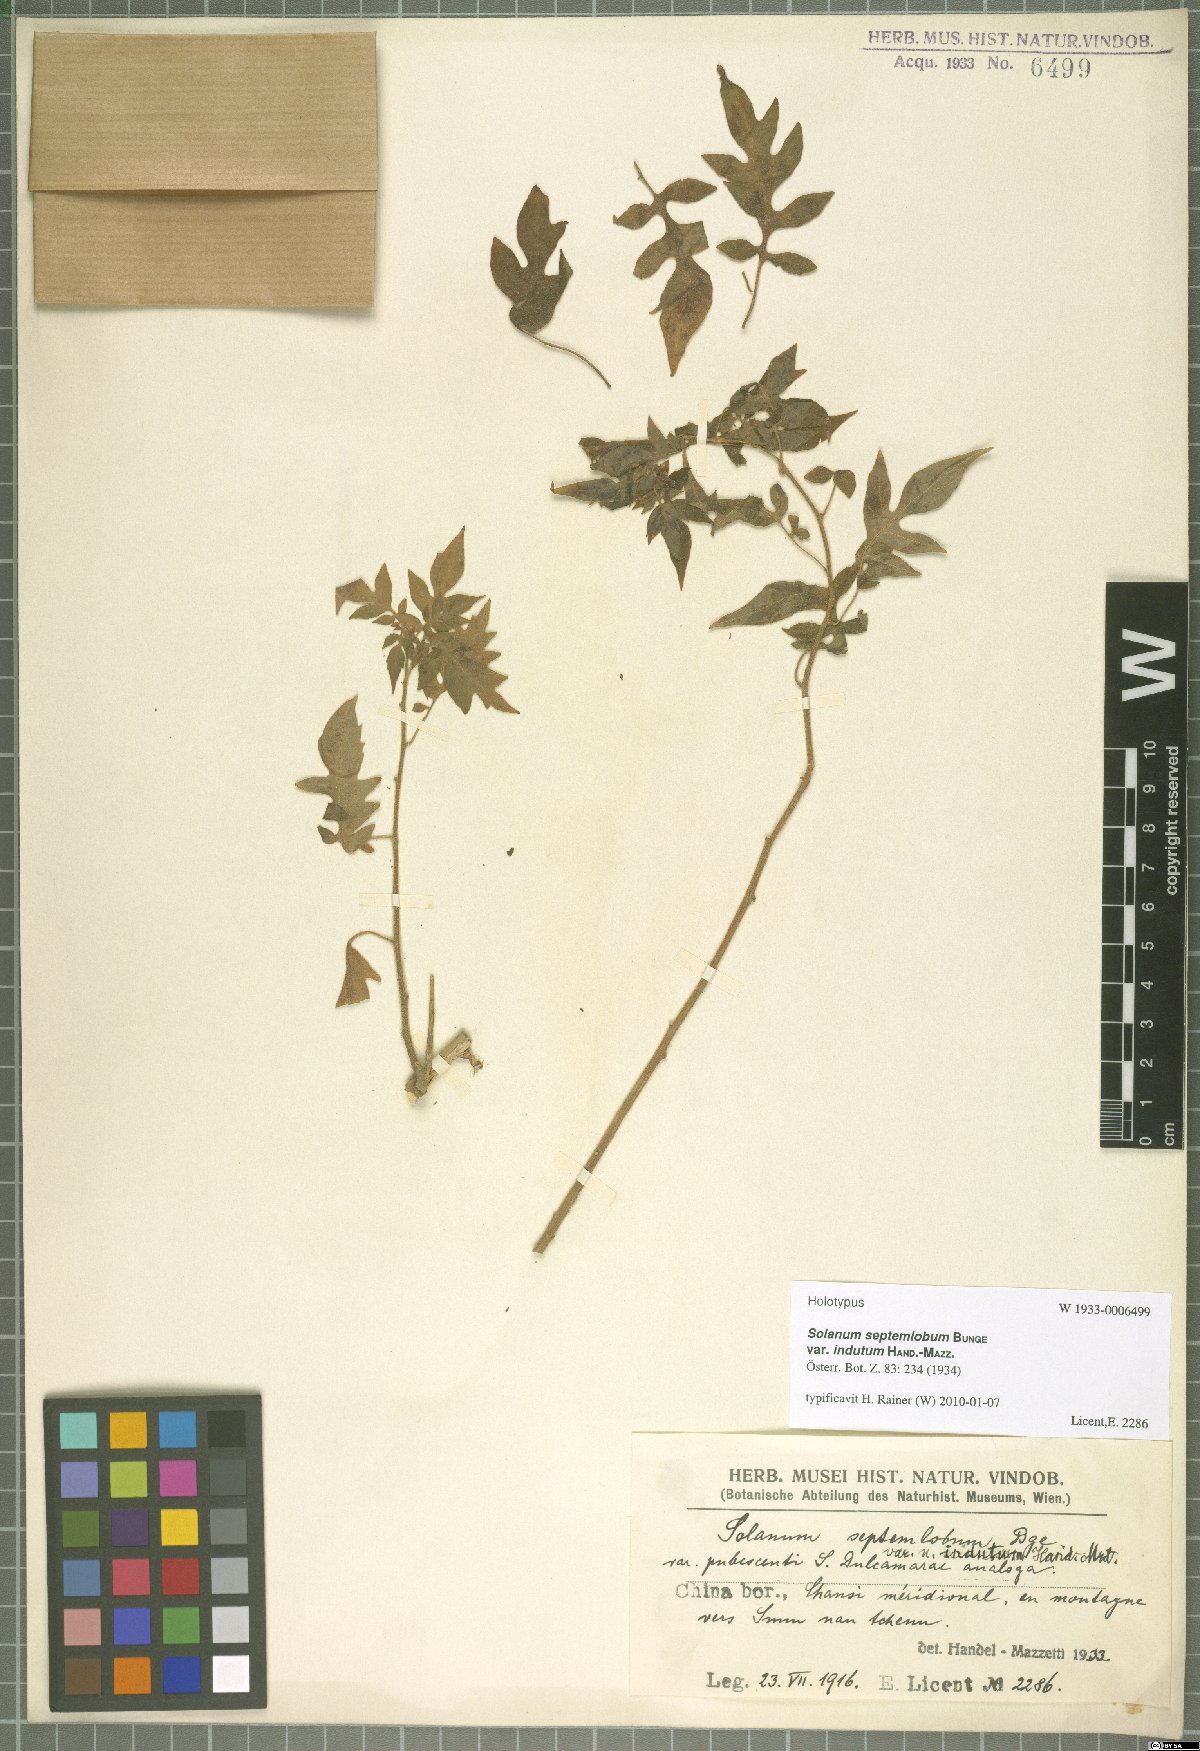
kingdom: Plantae
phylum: Tracheophyta
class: Magnoliopsida
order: Solanales
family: Solanaceae
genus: Solanum
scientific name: Solanum lyratum
